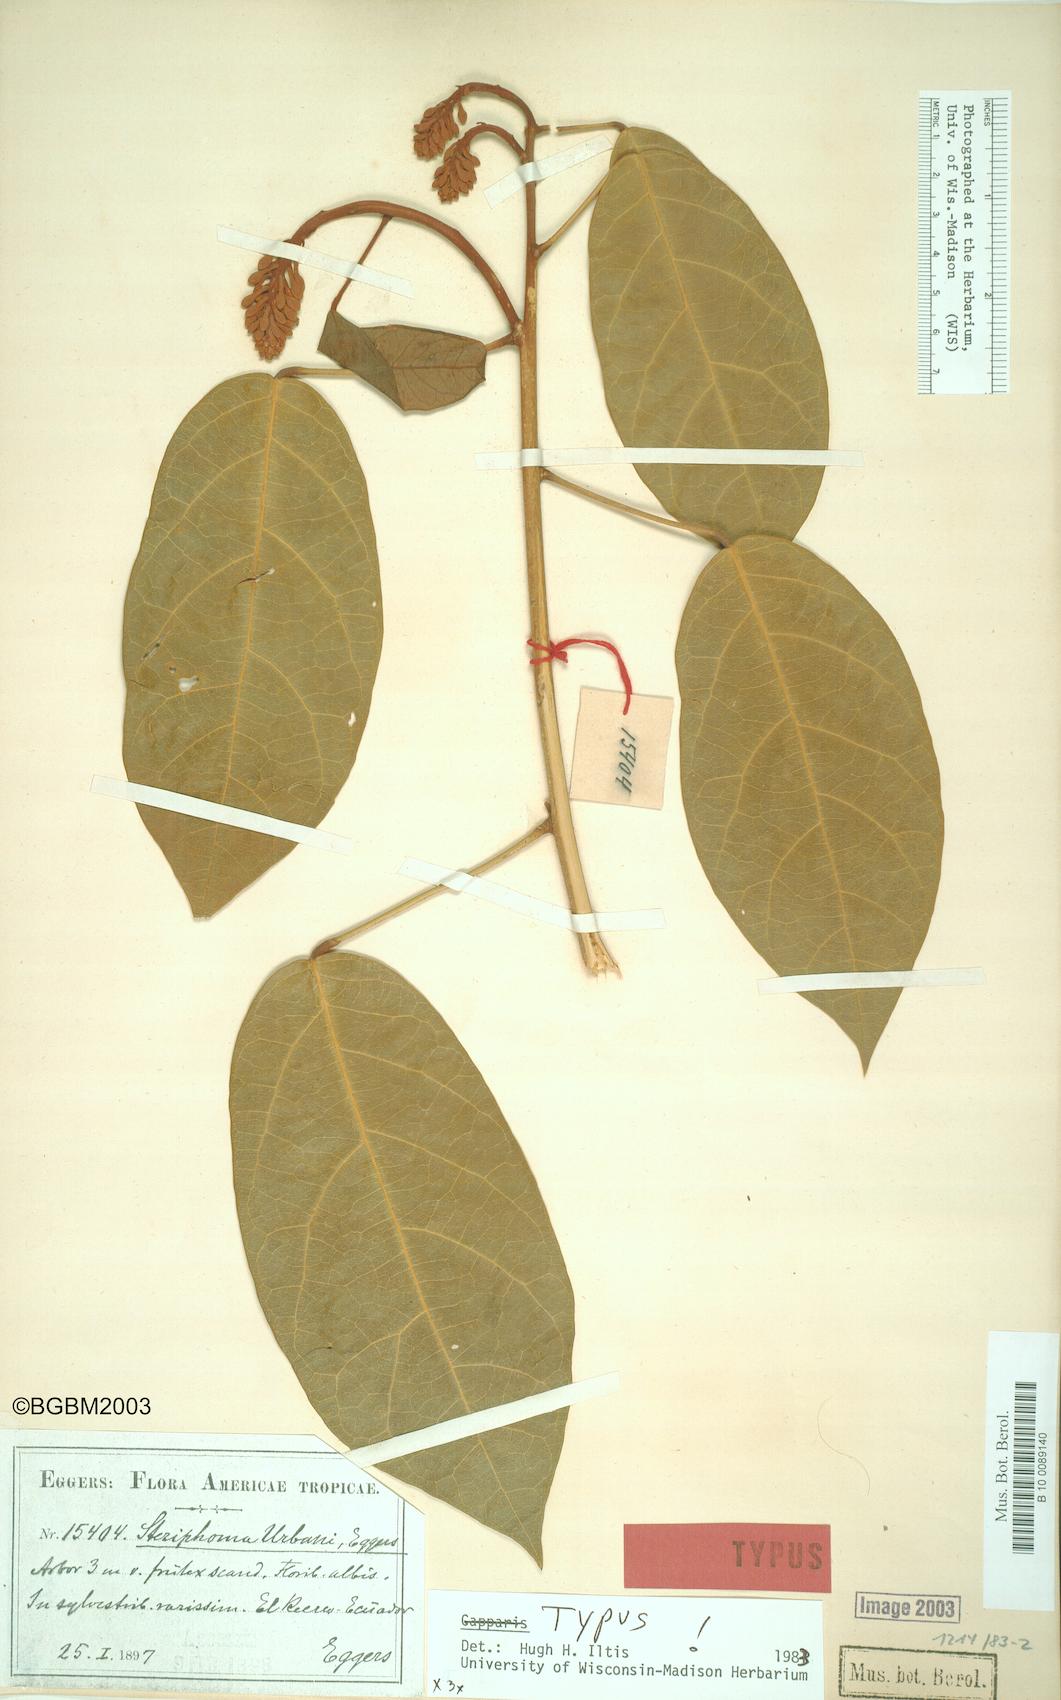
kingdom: Plantae
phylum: Tracheophyta
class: Magnoliopsida
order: Brassicales
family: Capparaceae
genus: Steriphoma
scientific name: Steriphoma urbani
